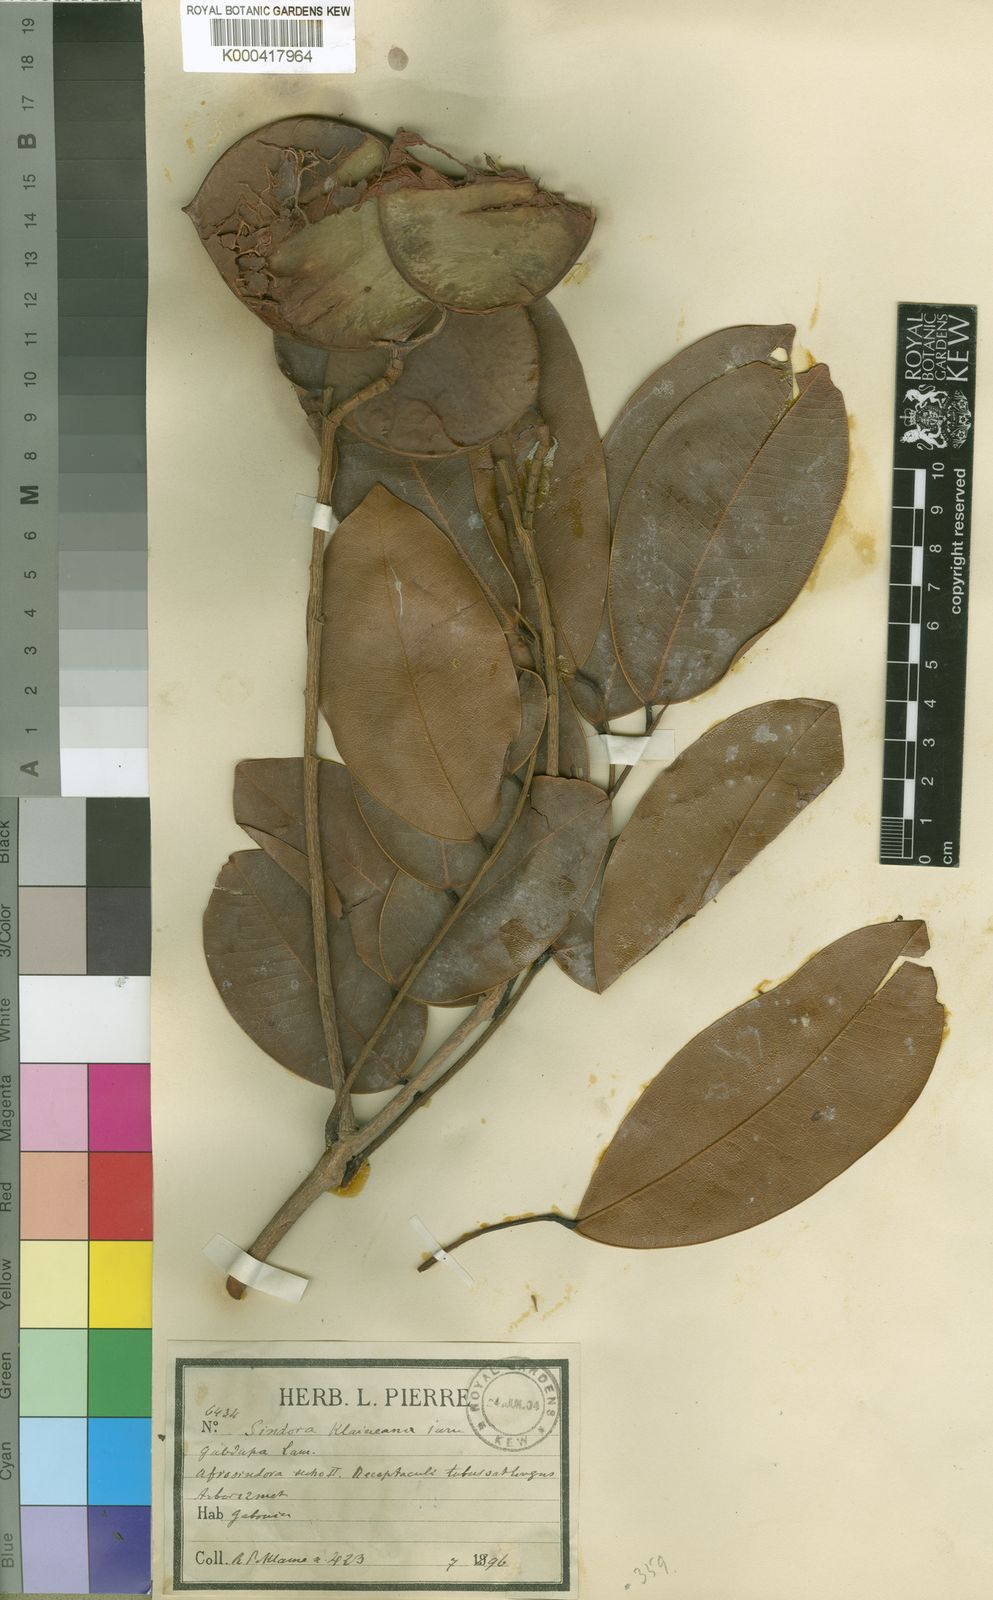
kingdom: Plantae
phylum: Tracheophyta
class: Magnoliopsida
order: Fabales
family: Fabaceae
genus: Sindora
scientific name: Sindora klaineana
